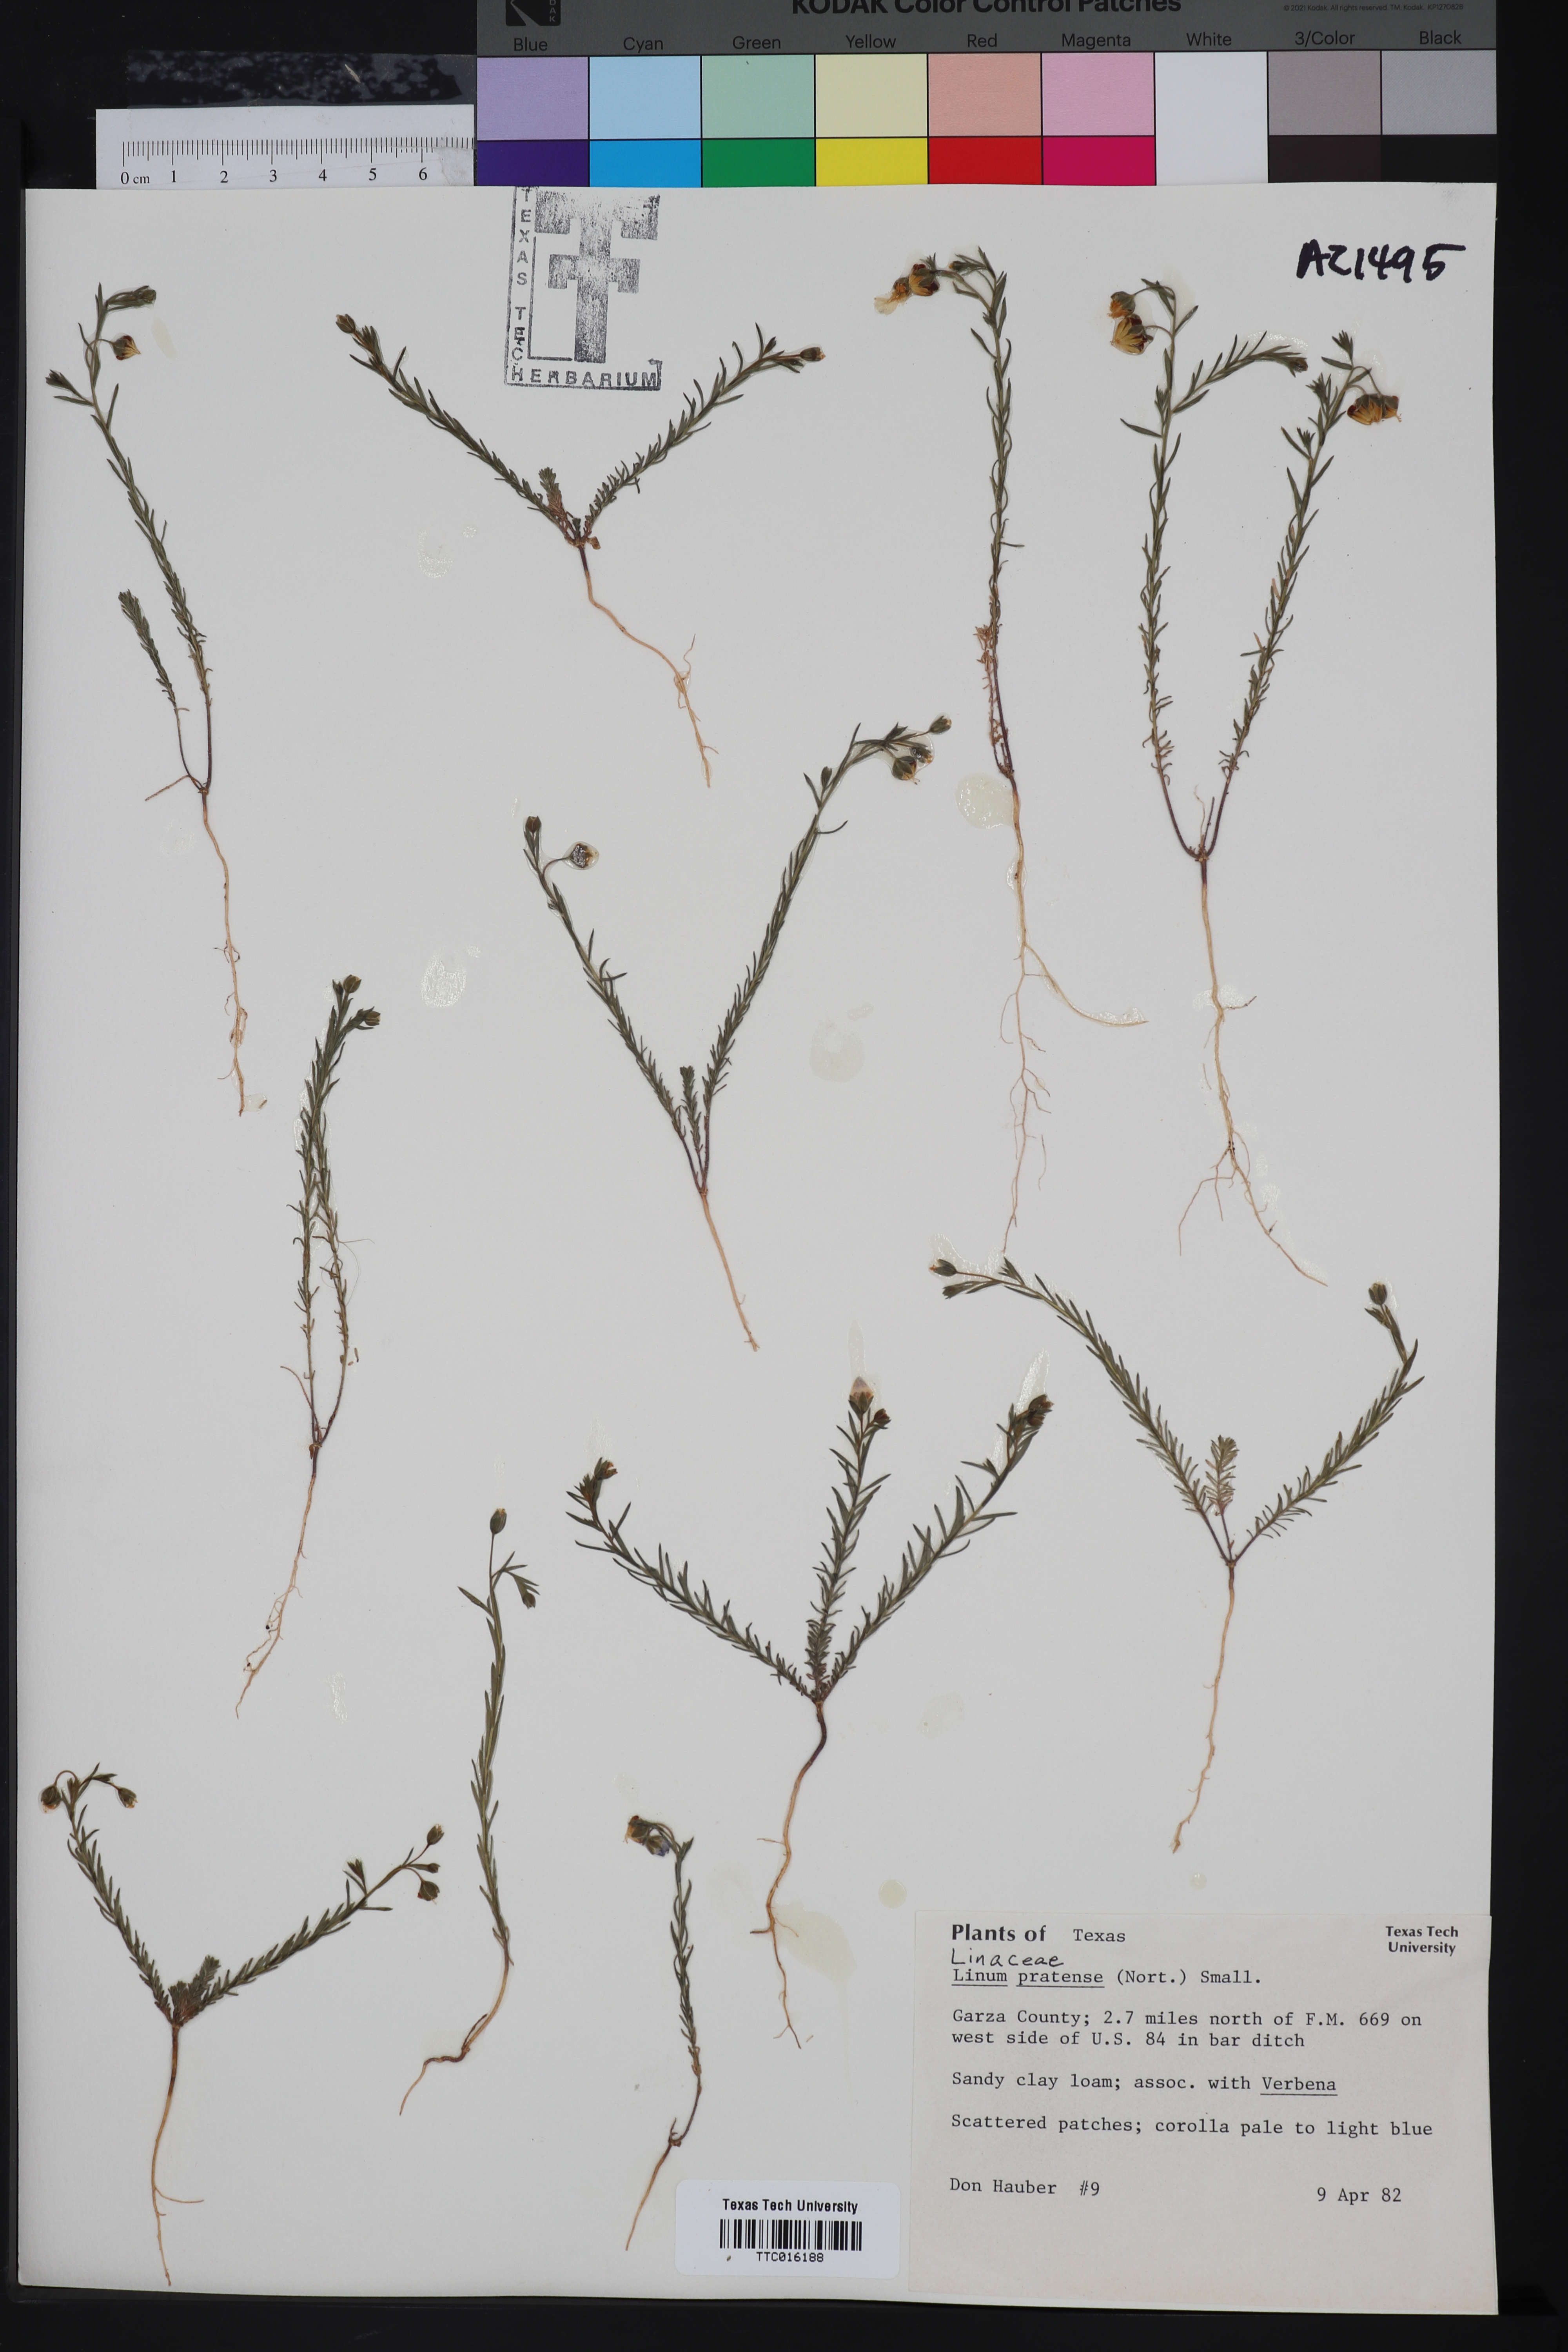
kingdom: Plantae
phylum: Tracheophyta
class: Magnoliopsida
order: Malpighiales
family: Linaceae
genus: Linum
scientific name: Linum pratense
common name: Norton's flax
